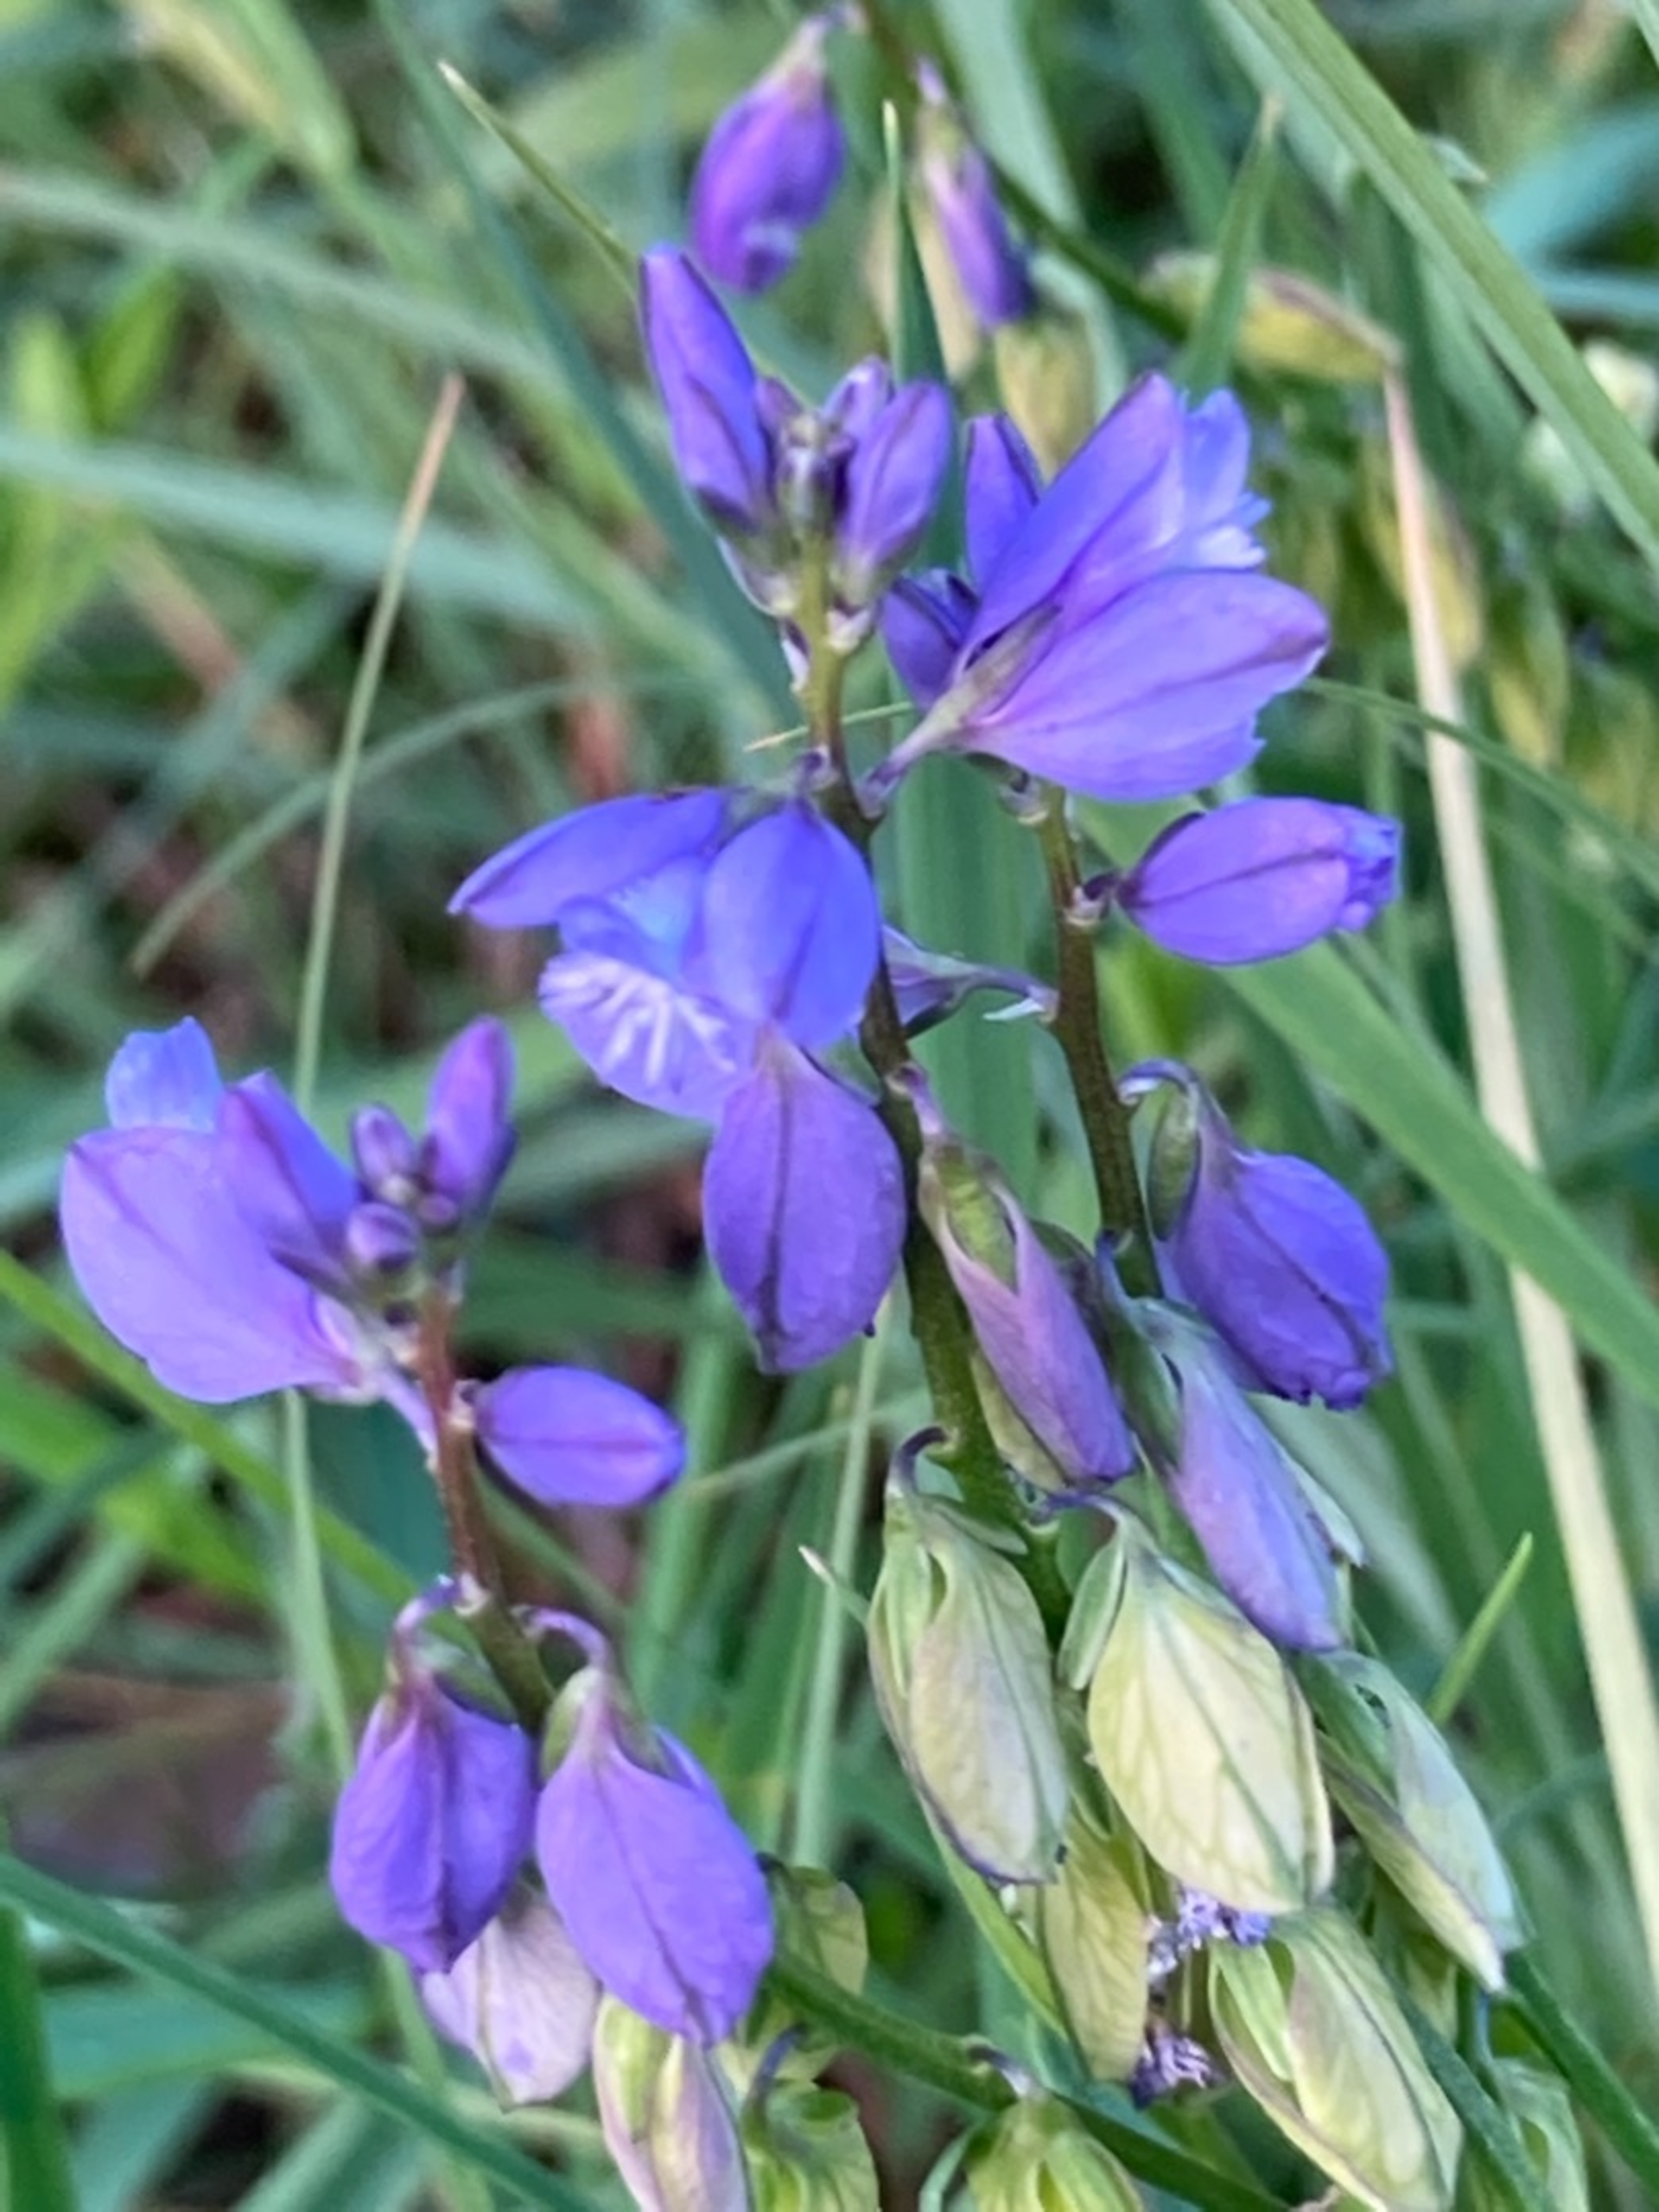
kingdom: Plantae
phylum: Tracheophyta
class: Magnoliopsida
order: Fabales
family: Polygalaceae
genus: Polygala
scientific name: Polygala vulgaris
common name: Almindelig mælkeurt
